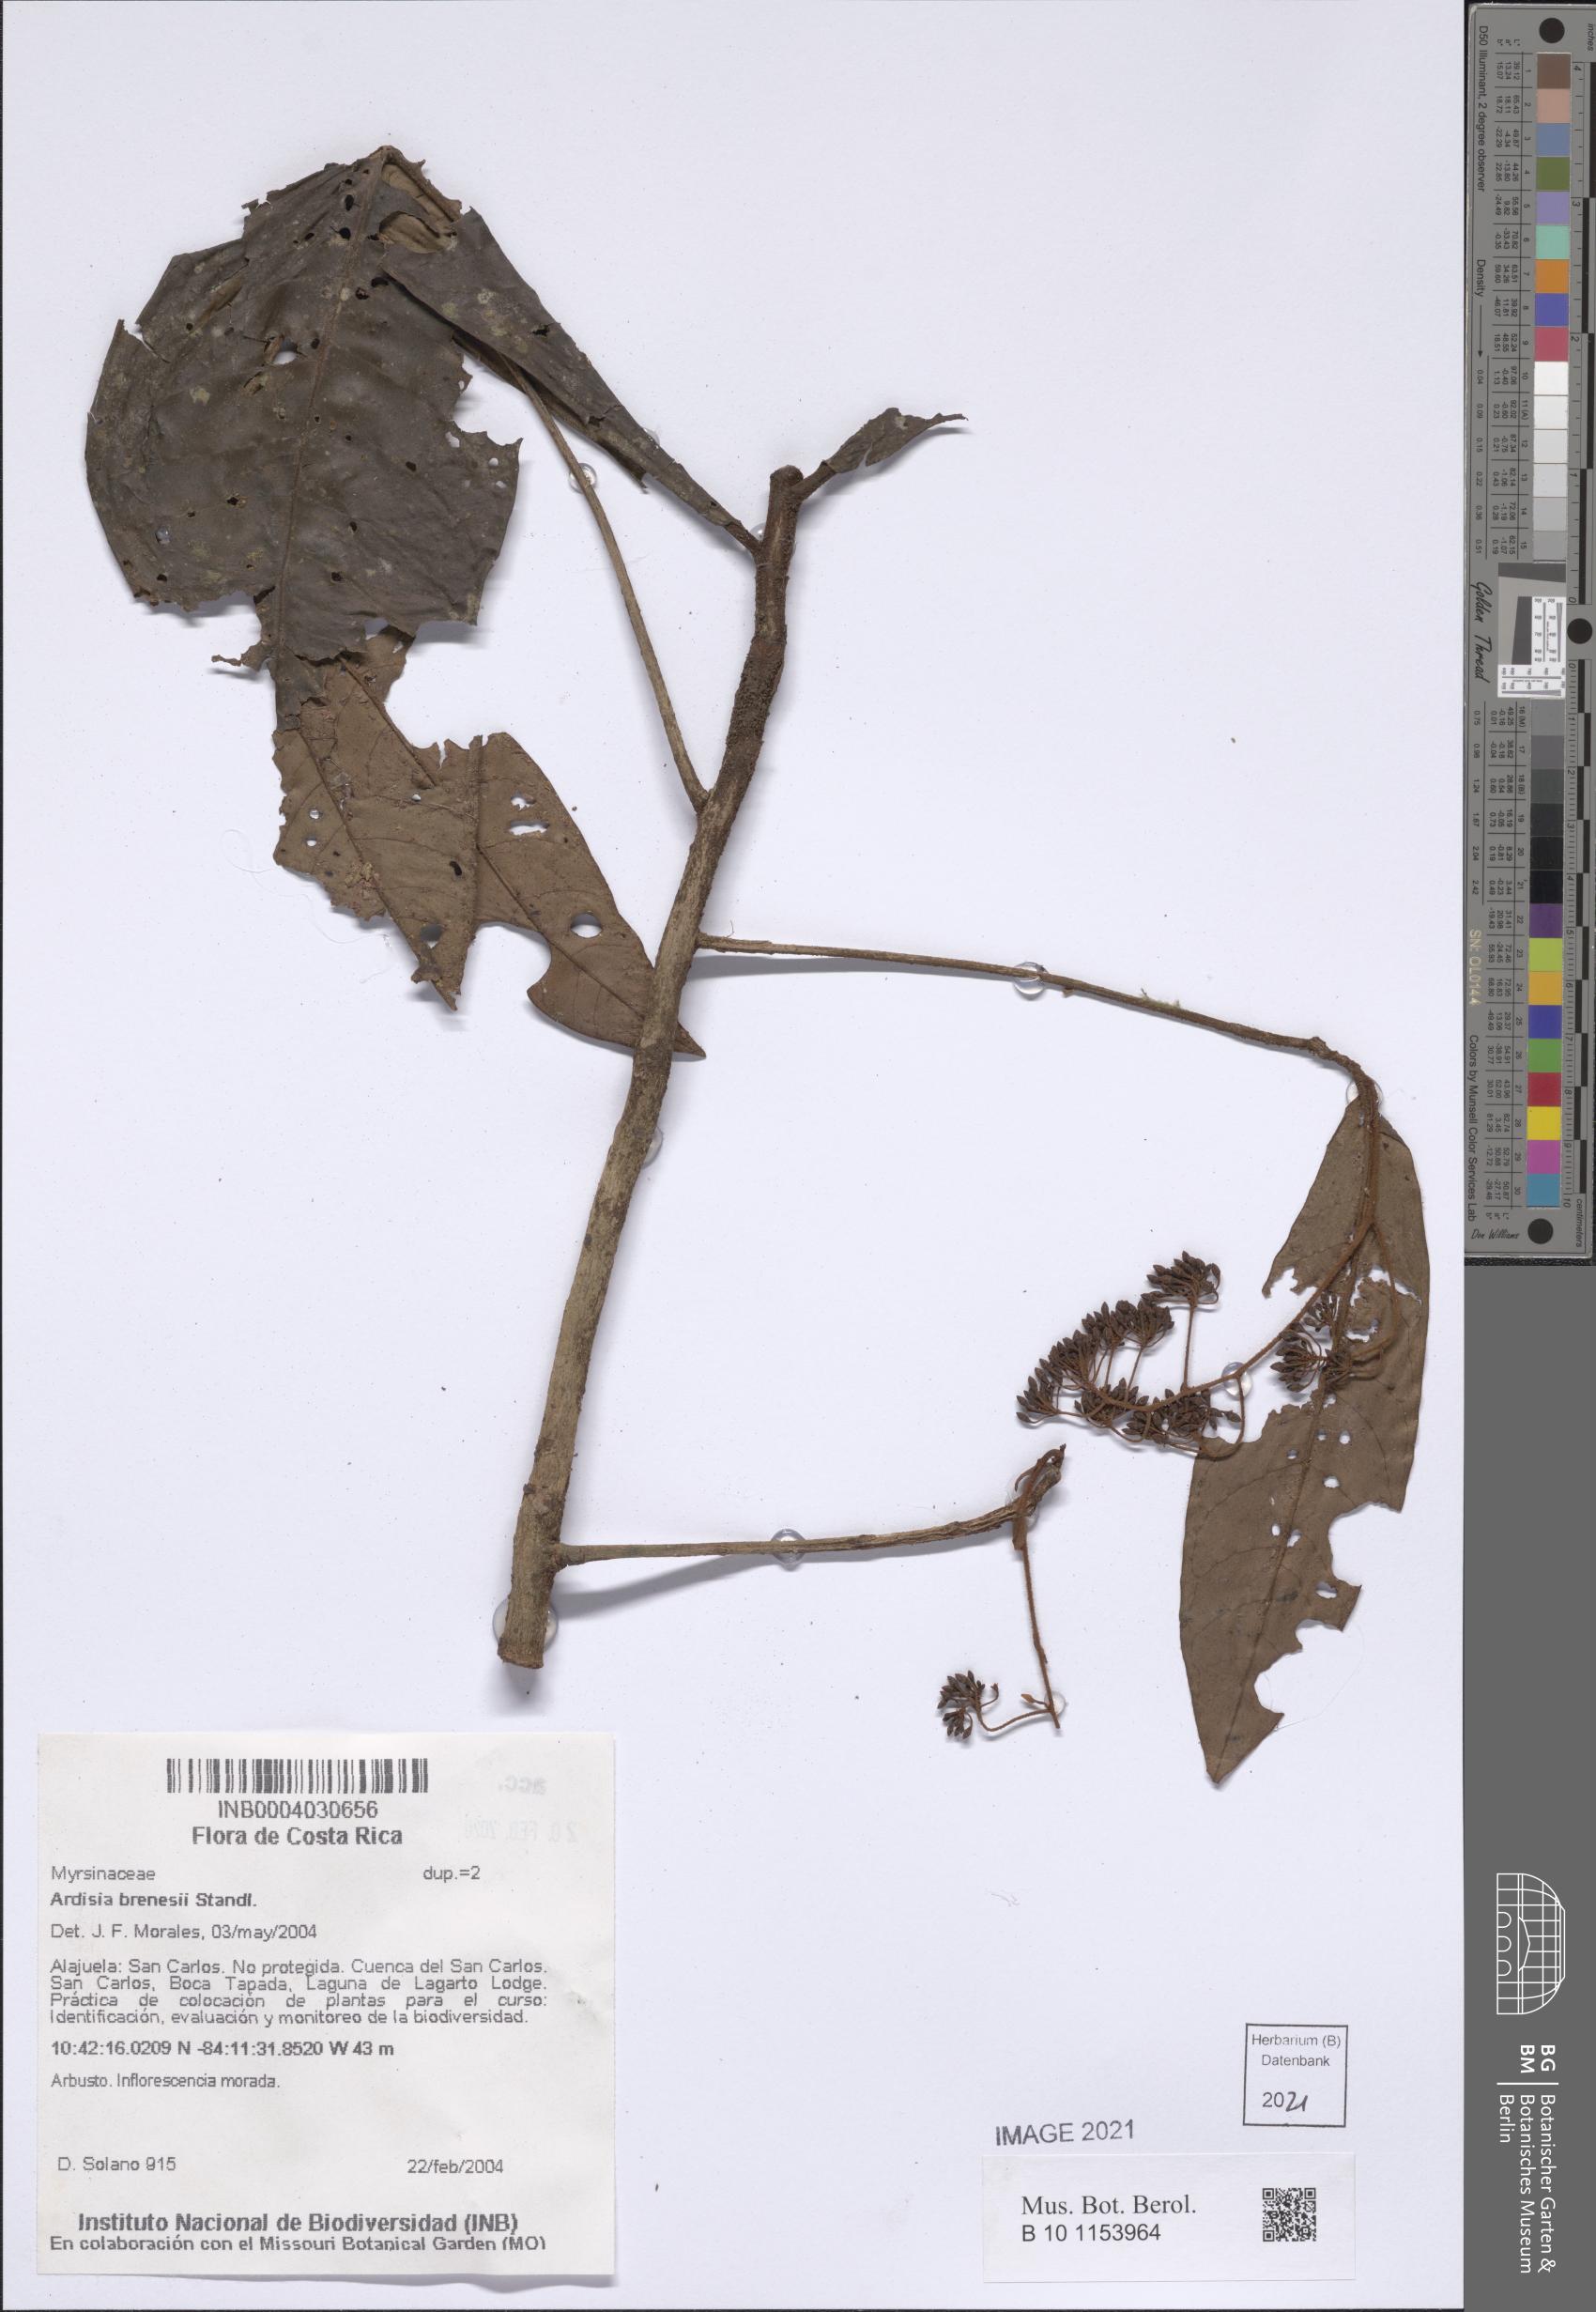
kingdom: Plantae
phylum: Tracheophyta
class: Magnoliopsida
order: Ericales
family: Primulaceae
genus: Ardisia
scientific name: Ardisia brenesii
